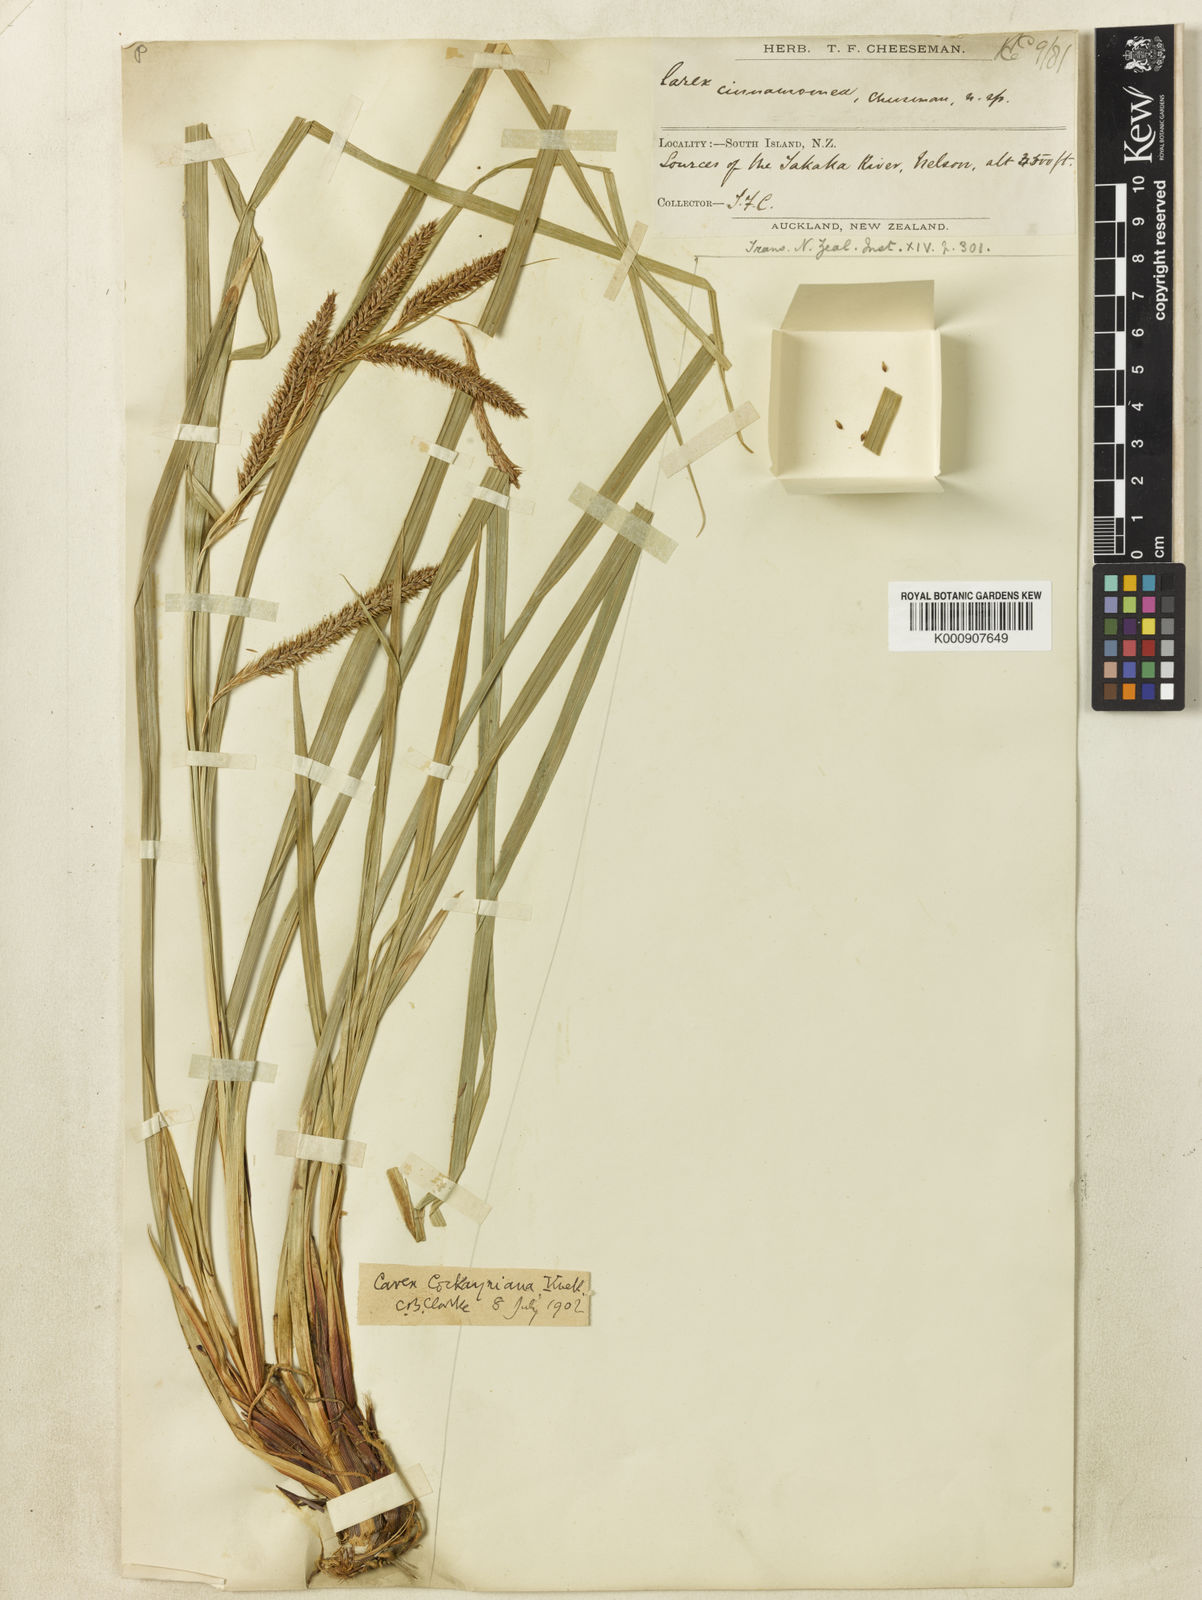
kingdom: Plantae
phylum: Tracheophyta
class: Liliopsida
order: Poales
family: Cyperaceae
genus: Carex
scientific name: Carex forsteri
